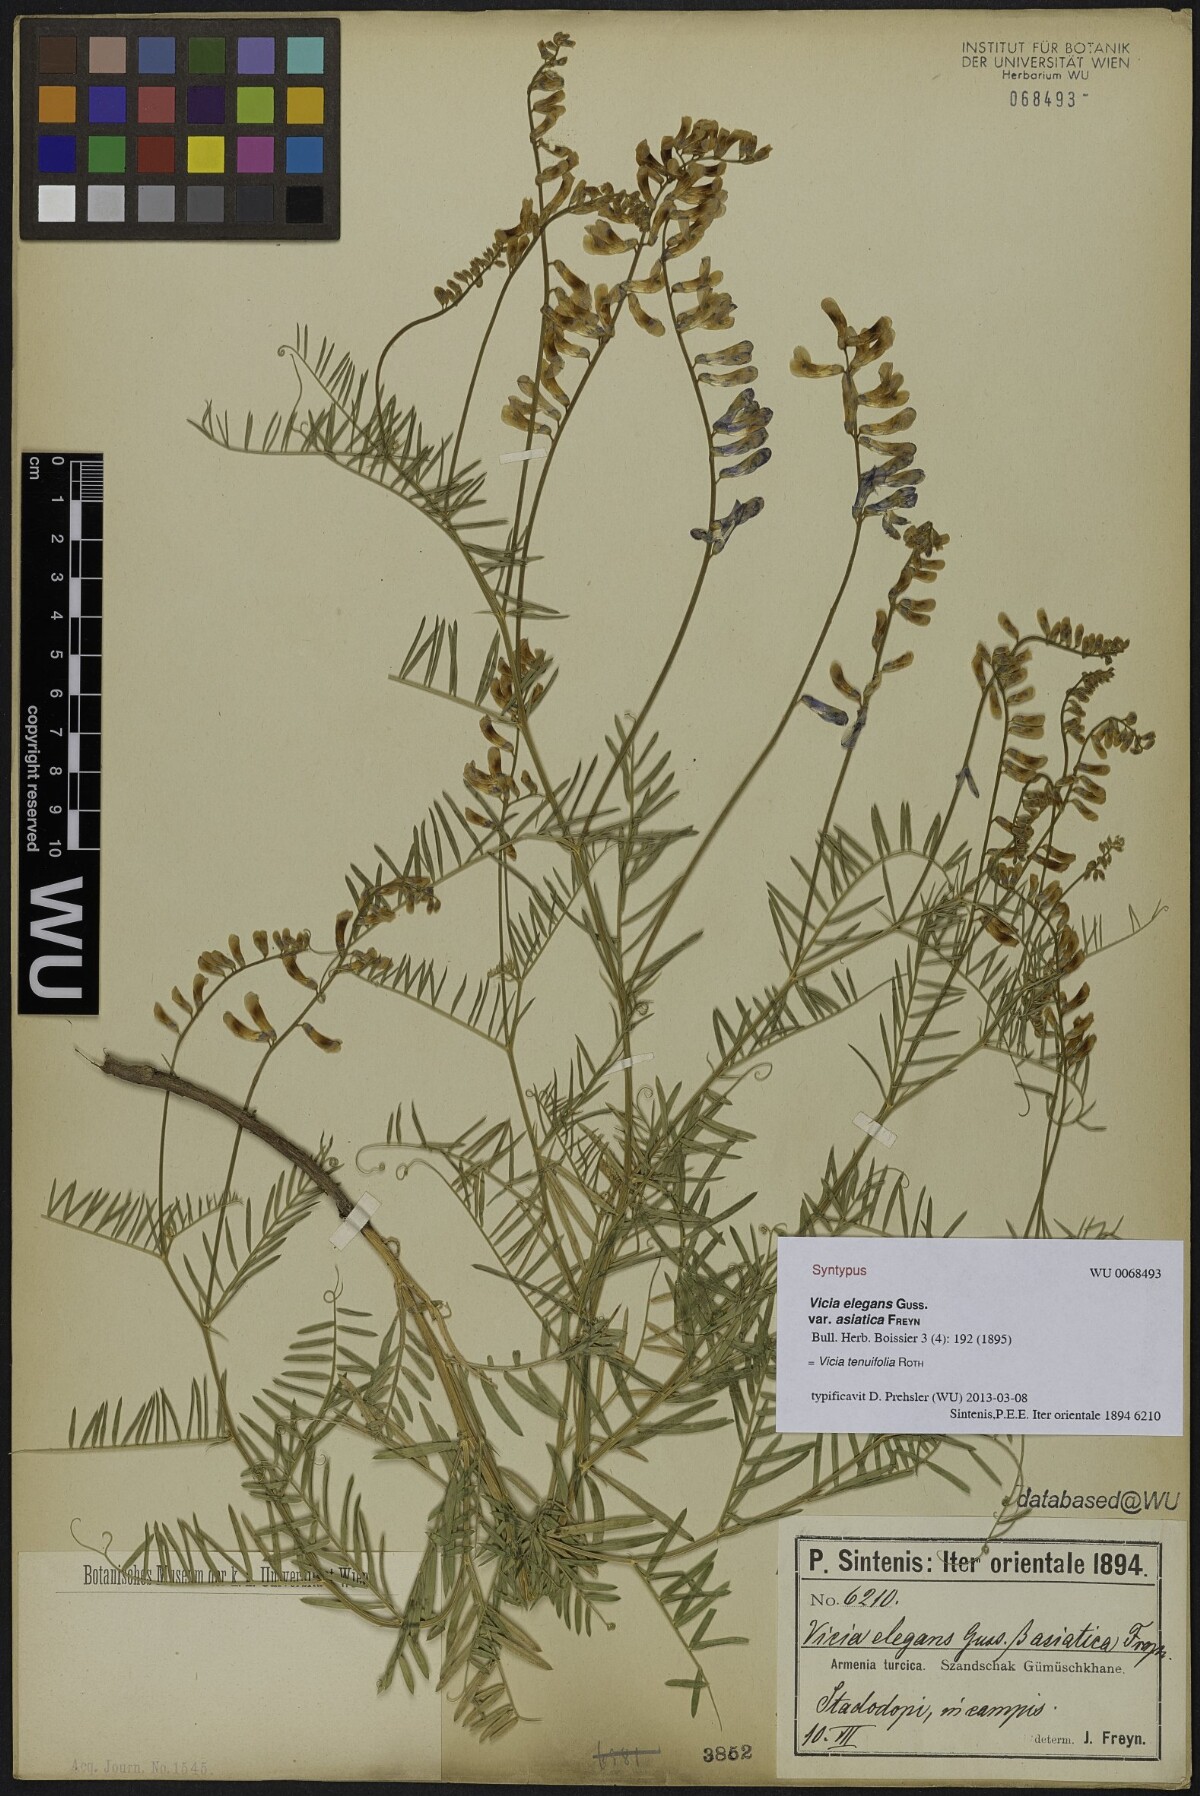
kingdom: Plantae
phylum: Tracheophyta
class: Magnoliopsida
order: Fabales
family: Fabaceae
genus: Vicia
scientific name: Vicia tenuifolia
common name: Fine-leaved vetch
